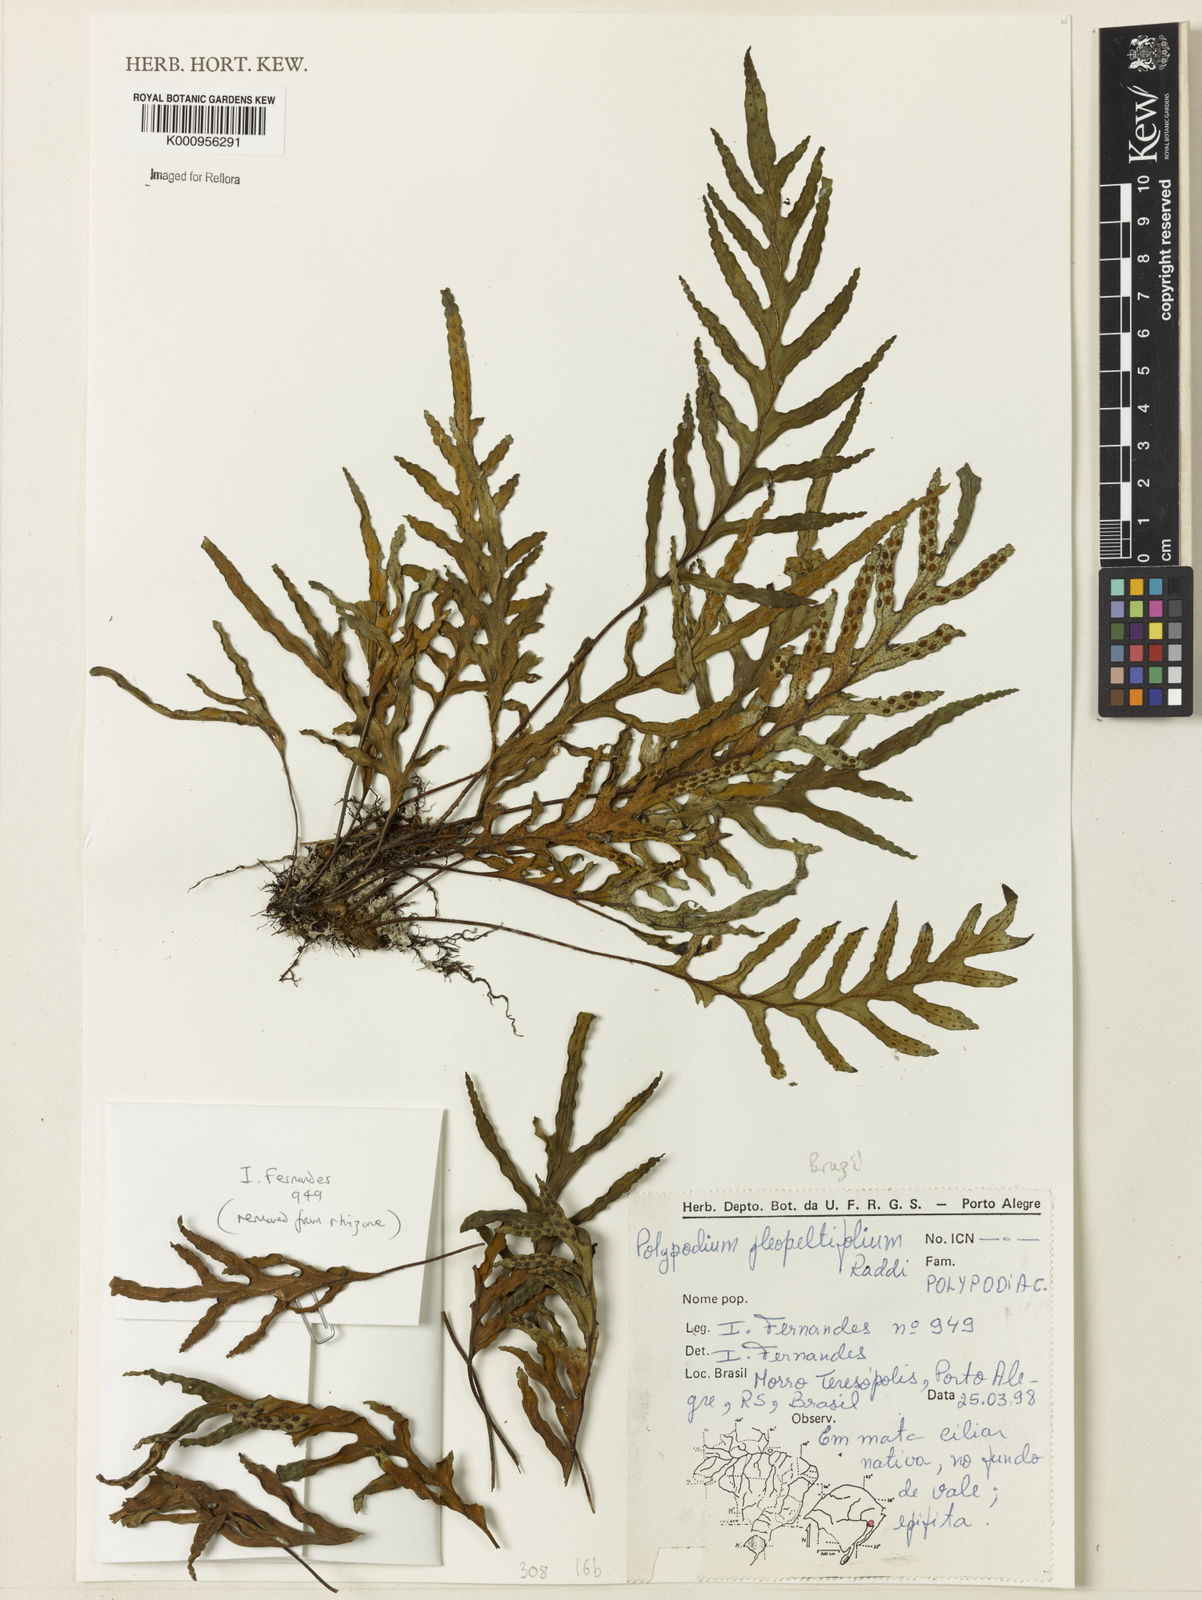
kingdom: Plantae
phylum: Tracheophyta
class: Polypodiopsida
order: Polypodiales
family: Polypodiaceae
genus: Polypodium
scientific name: Polypodium
